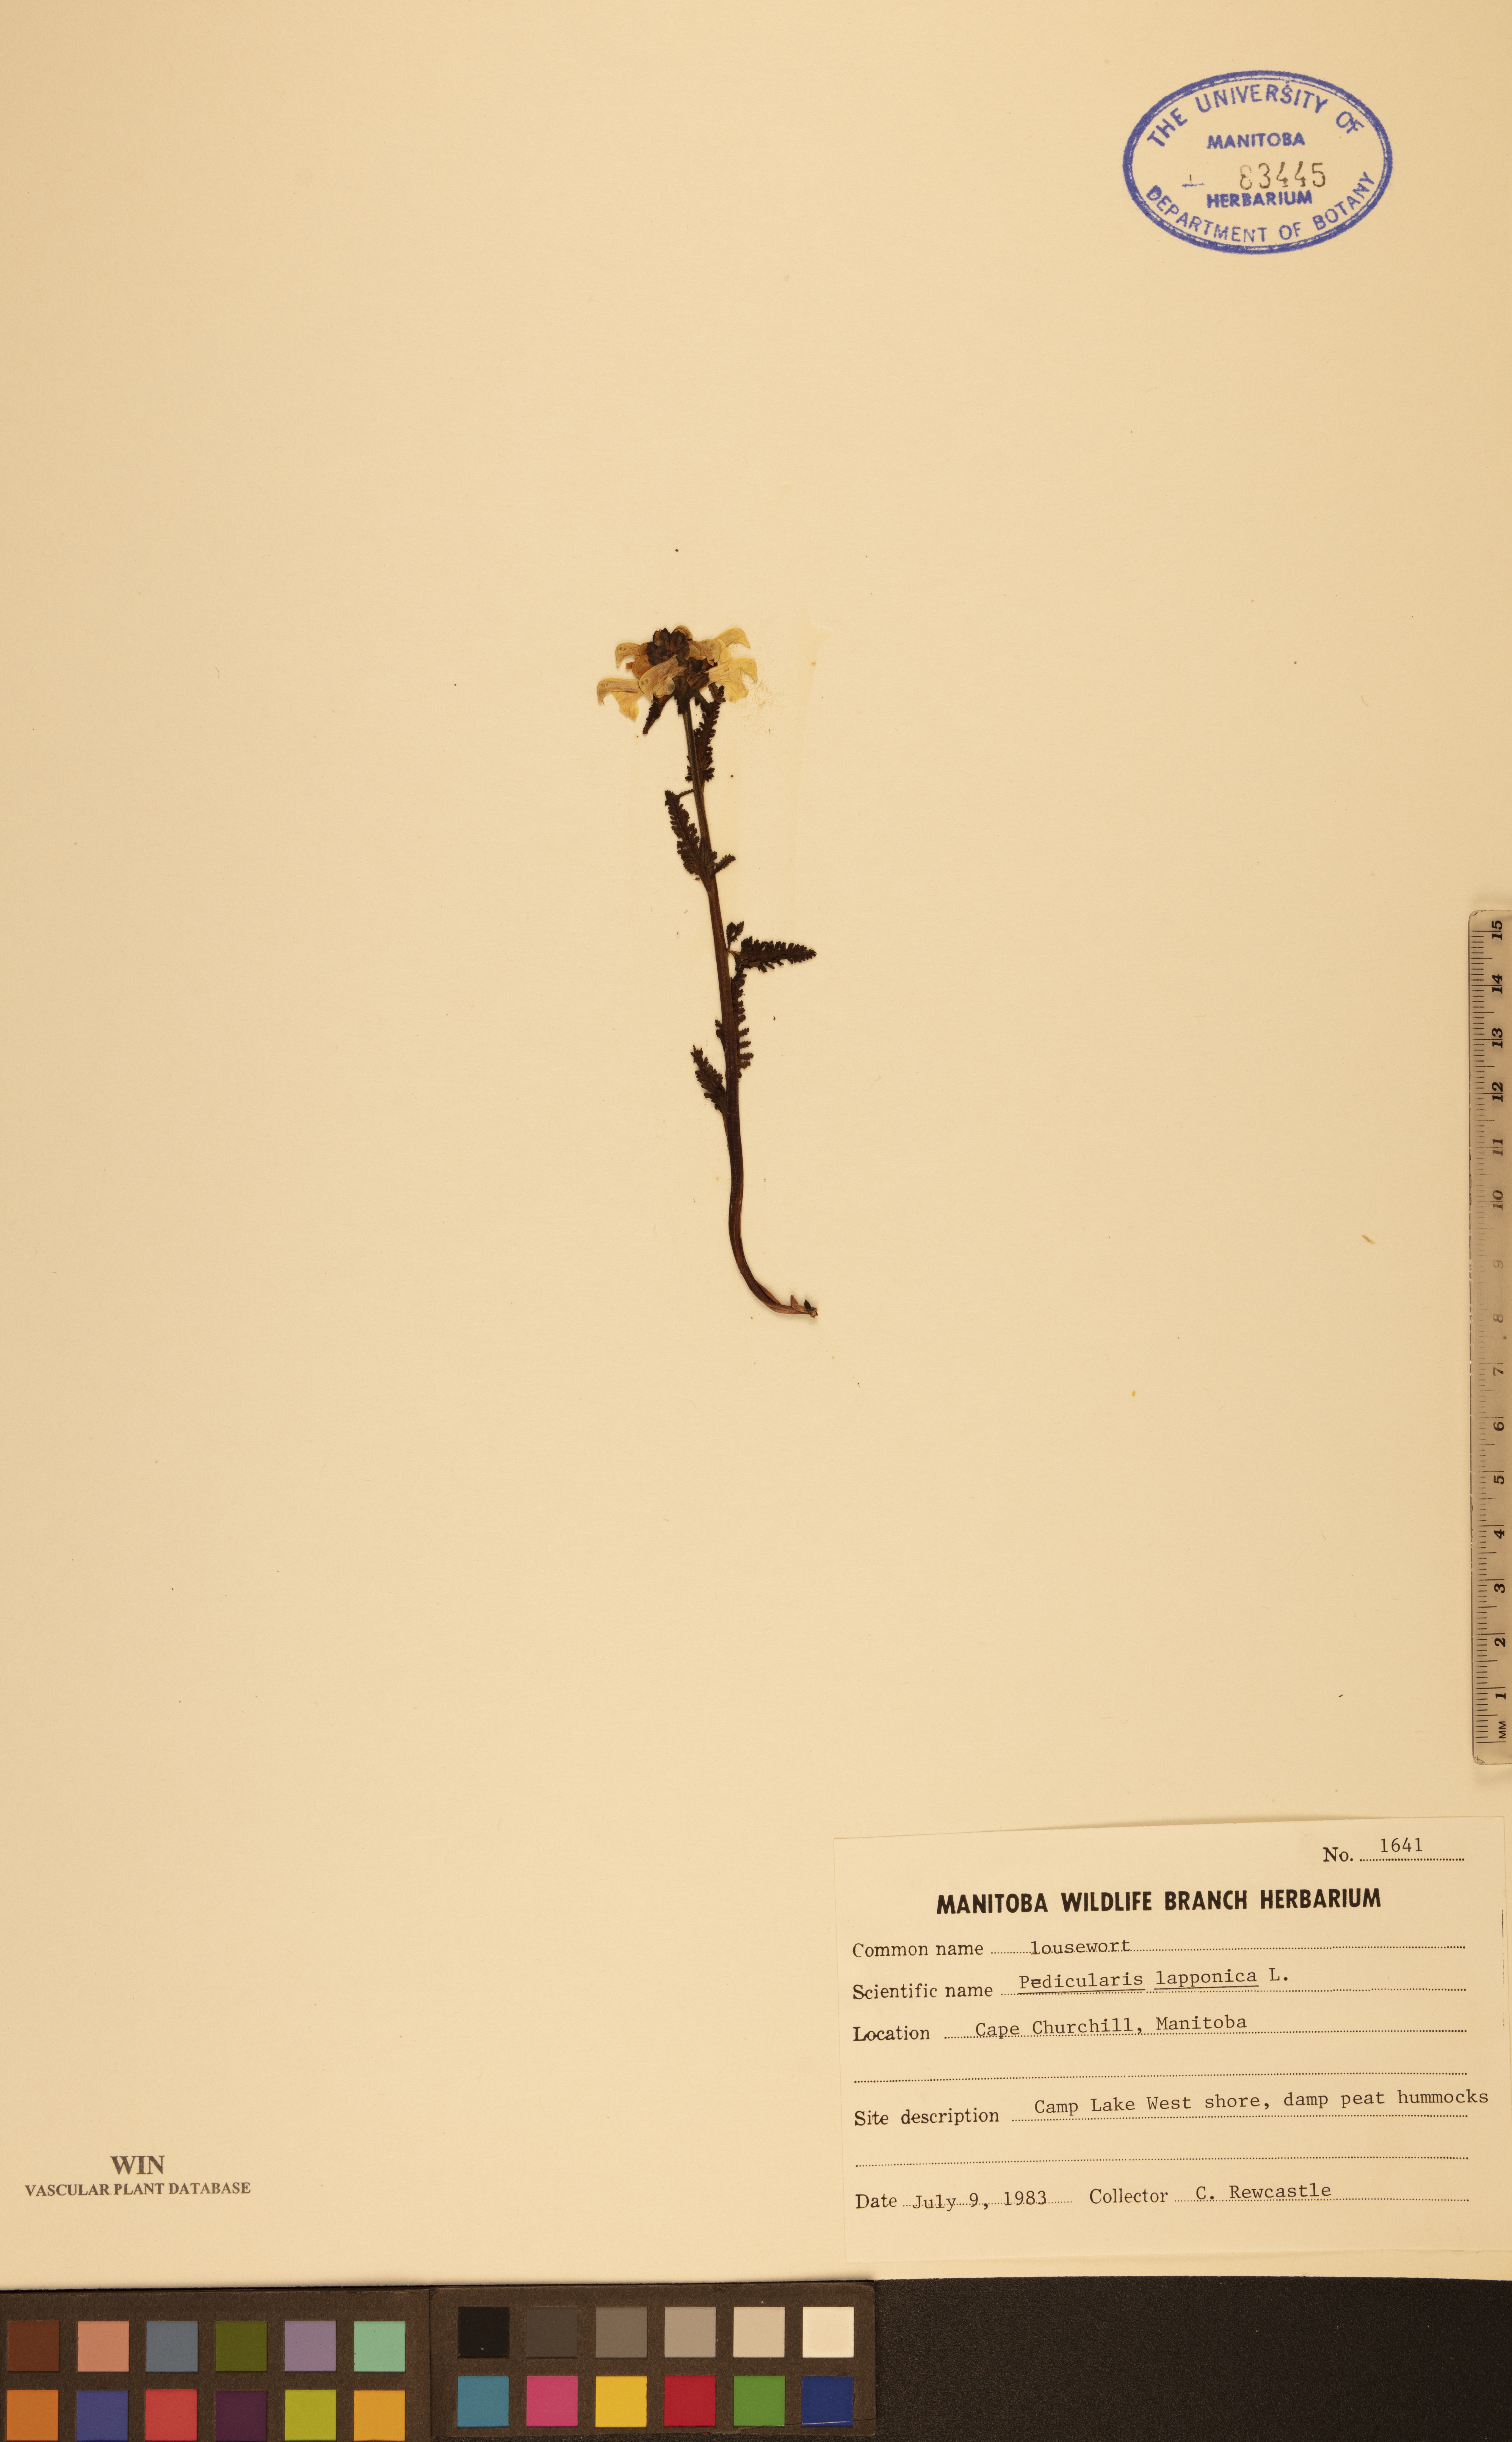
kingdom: Plantae
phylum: Tracheophyta
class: Magnoliopsida
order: Lamiales
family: Orobanchaceae
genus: Pedicularis
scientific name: Pedicularis lapponica
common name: Lapland lousewort
